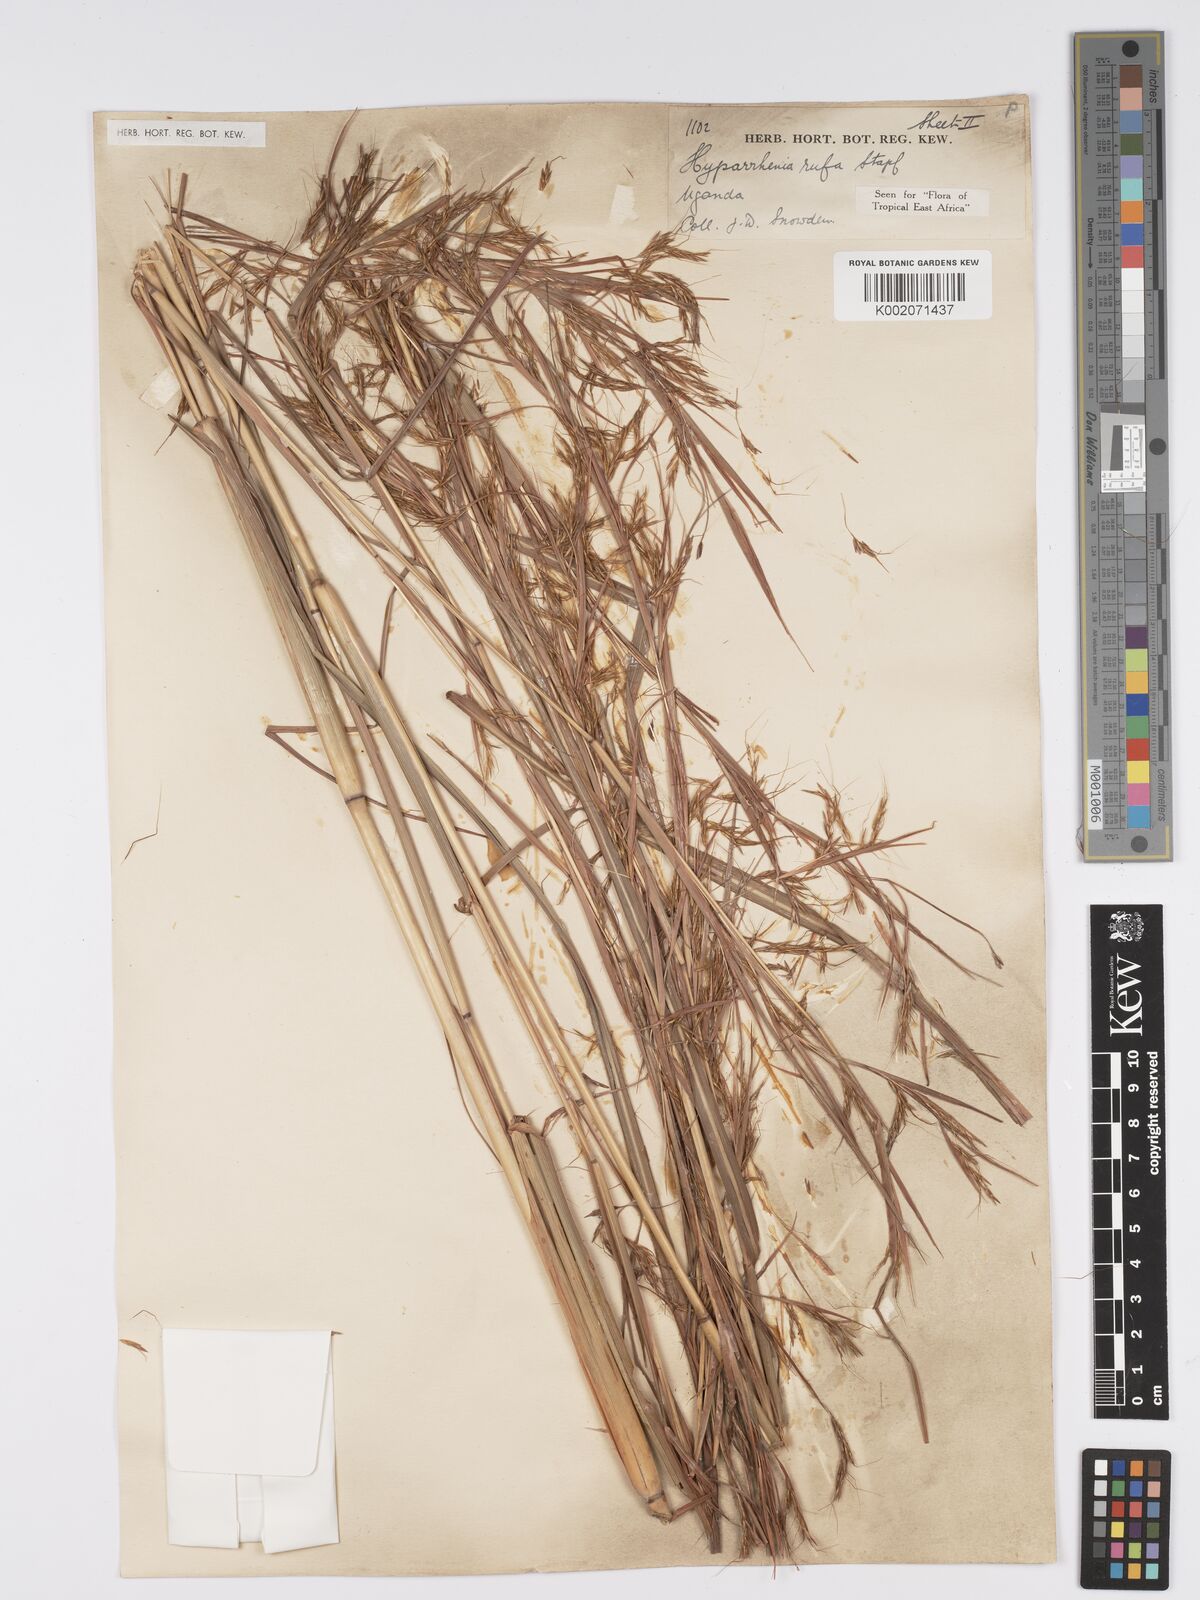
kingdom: Plantae
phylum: Tracheophyta
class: Liliopsida
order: Poales
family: Poaceae
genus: Hyparrhenia
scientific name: Hyparrhenia rufa
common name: Jaraguagrass
